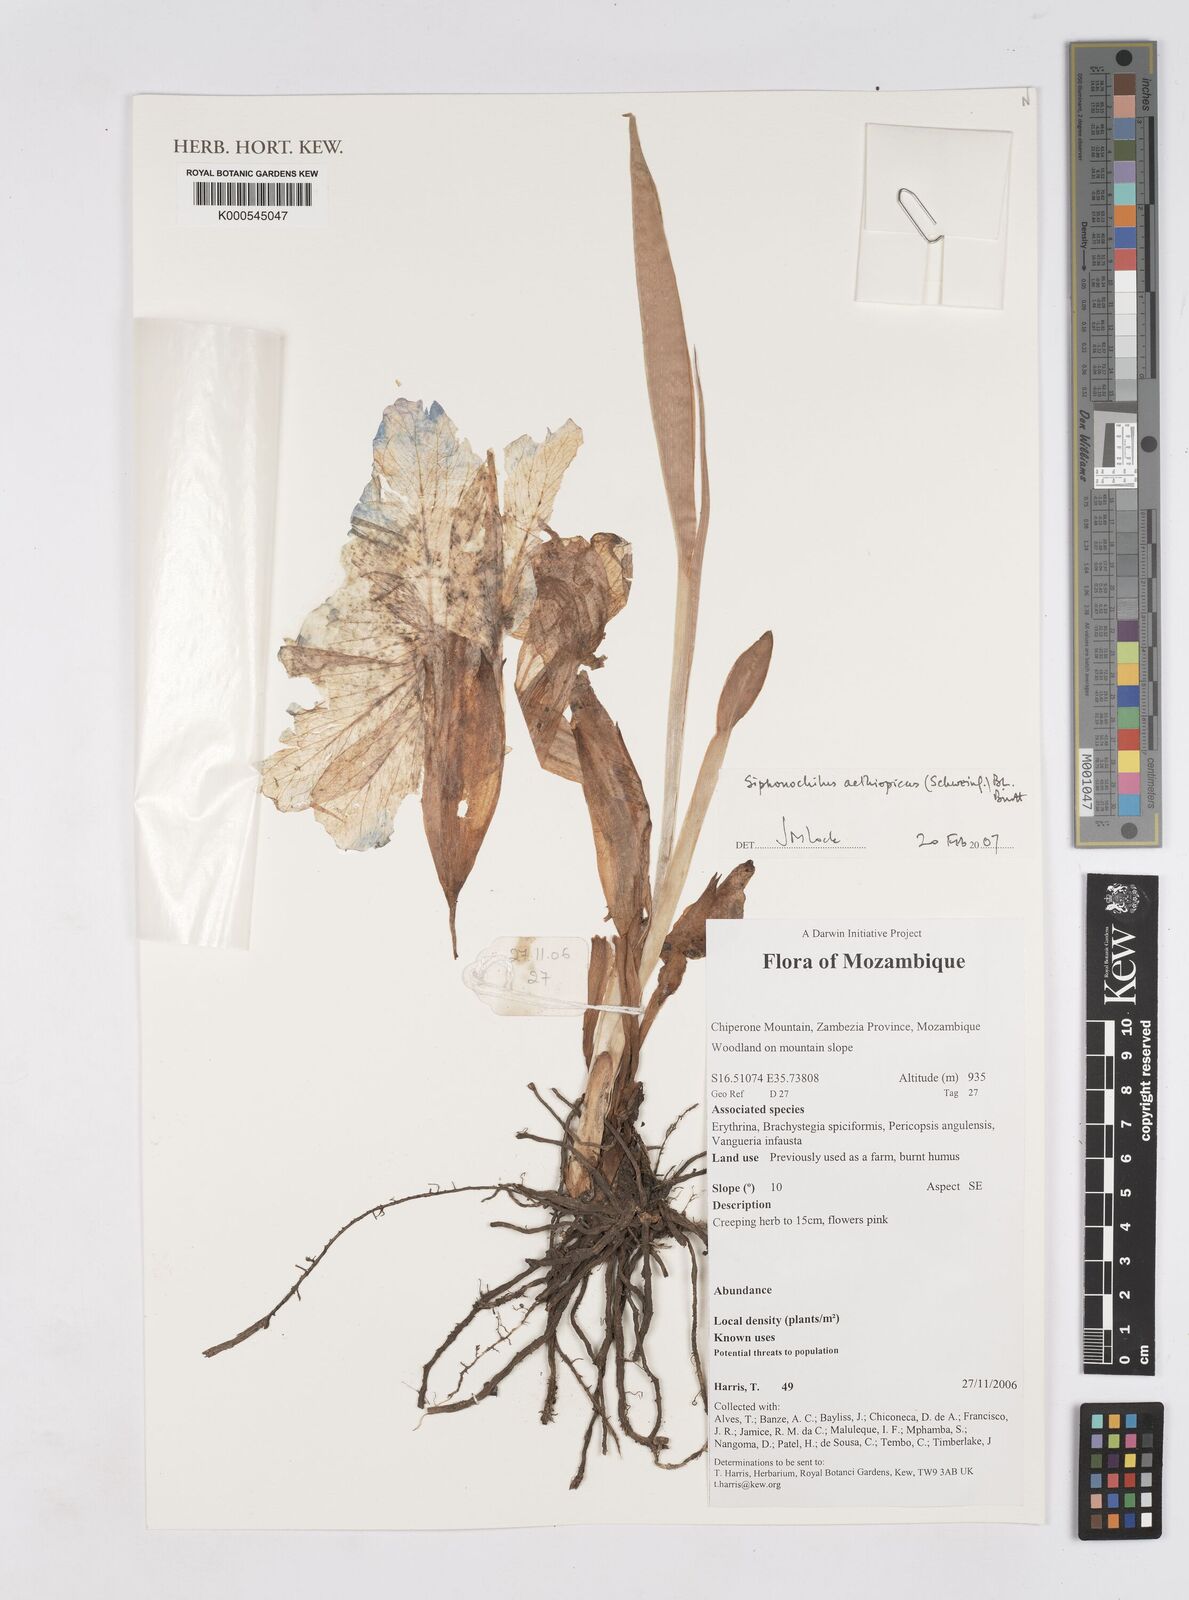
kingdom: Plantae
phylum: Tracheophyta
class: Liliopsida
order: Zingiberales
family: Zingiberaceae
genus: Siphonochilus
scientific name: Siphonochilus aethiopicus
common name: African-ginger
